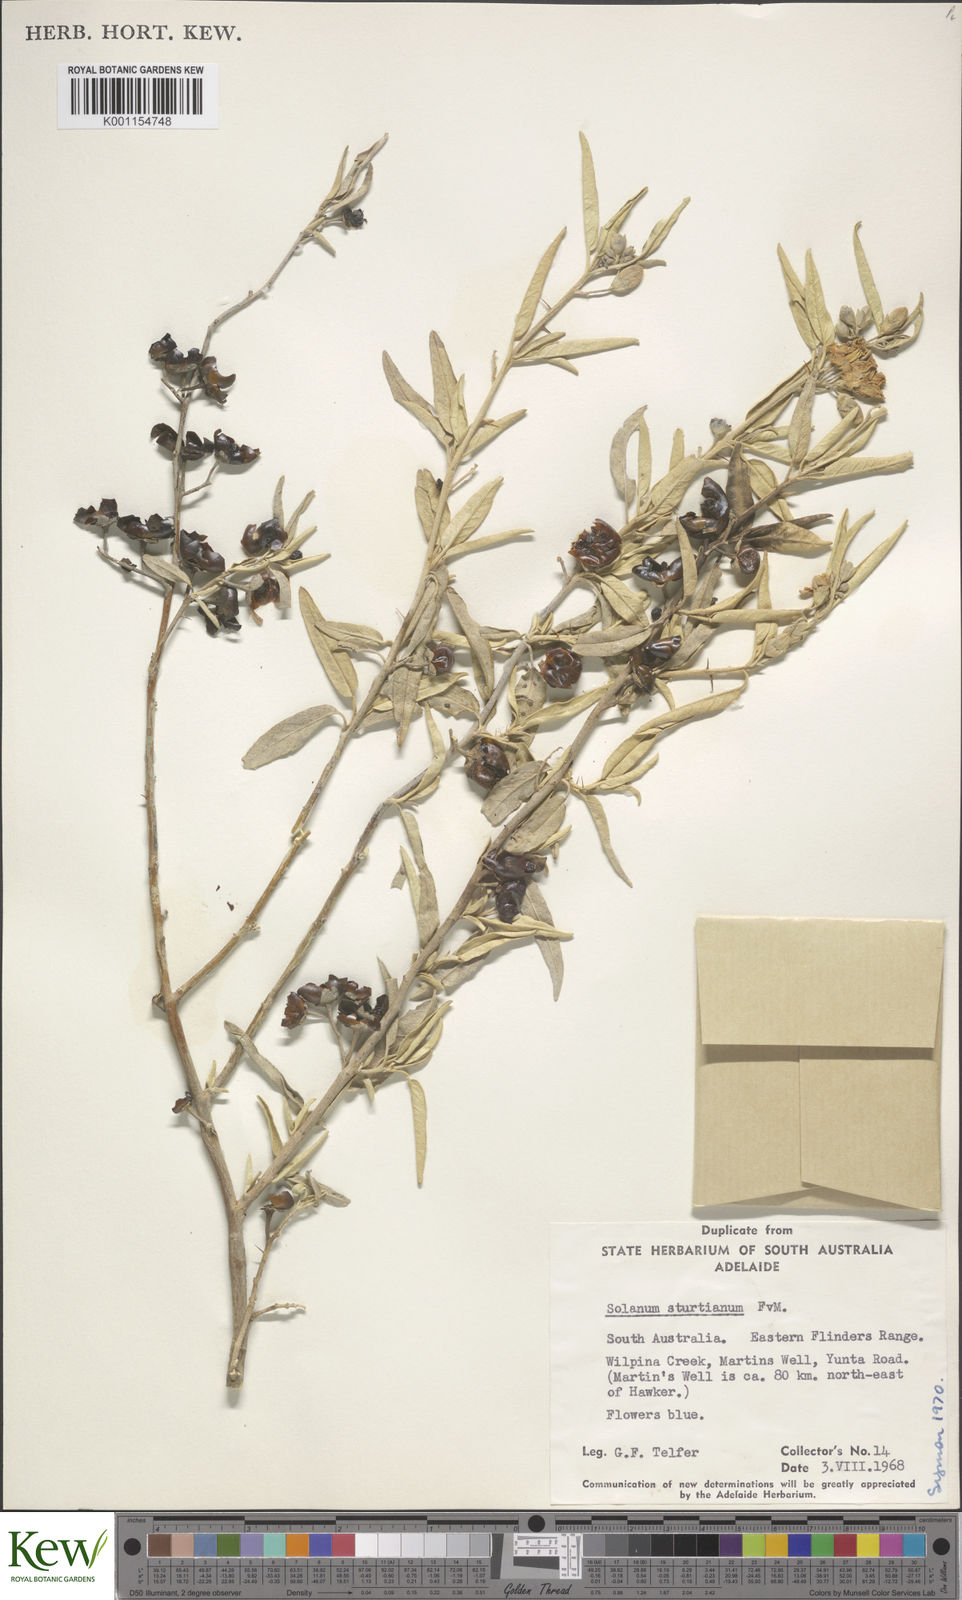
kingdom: Plantae
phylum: Tracheophyta
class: Magnoliopsida
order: Solanales
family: Solanaceae
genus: Solanum
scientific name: Solanum sturtianum
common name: Thargomindah nightshade
